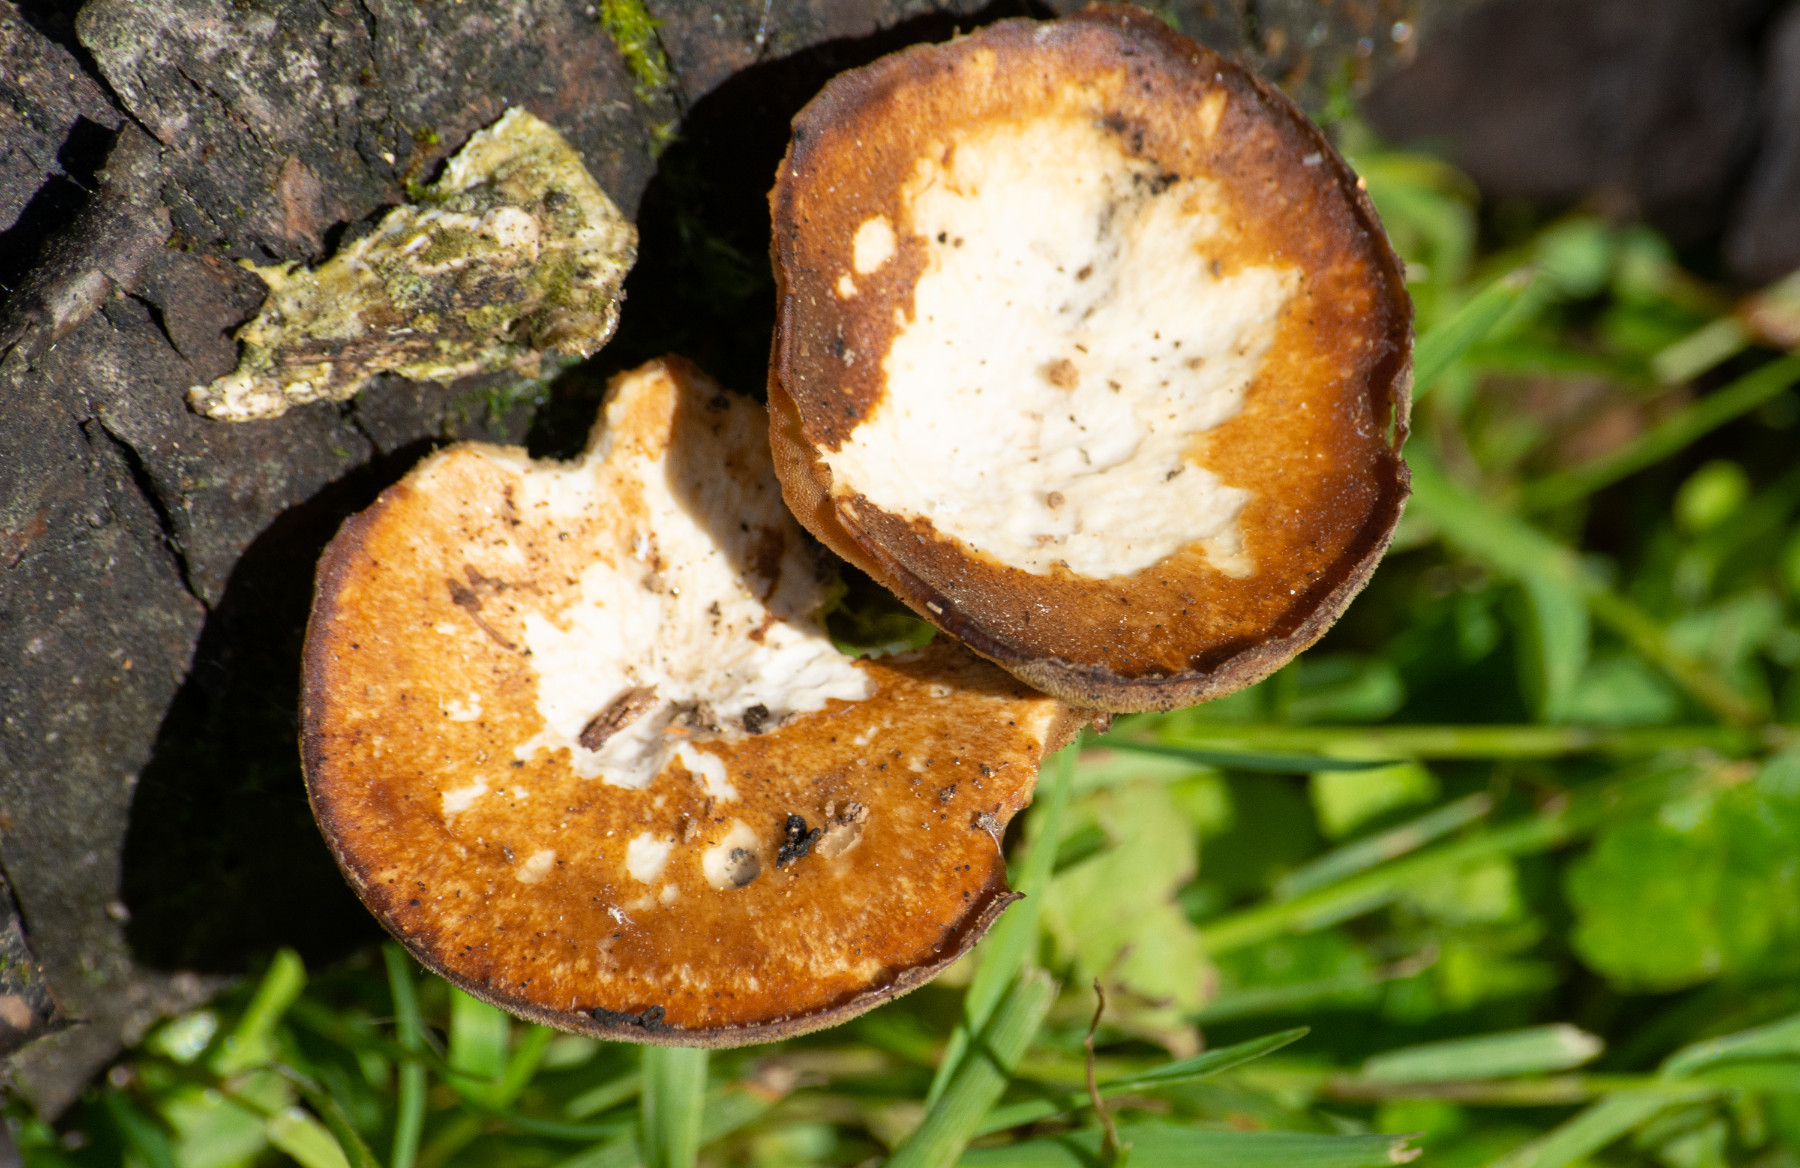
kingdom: Fungi
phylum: Basidiomycota
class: Agaricomycetes
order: Polyporales
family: Polyporaceae
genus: Polyporus
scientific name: Polyporus tuberaster
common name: knoldet stilkporesvamp
